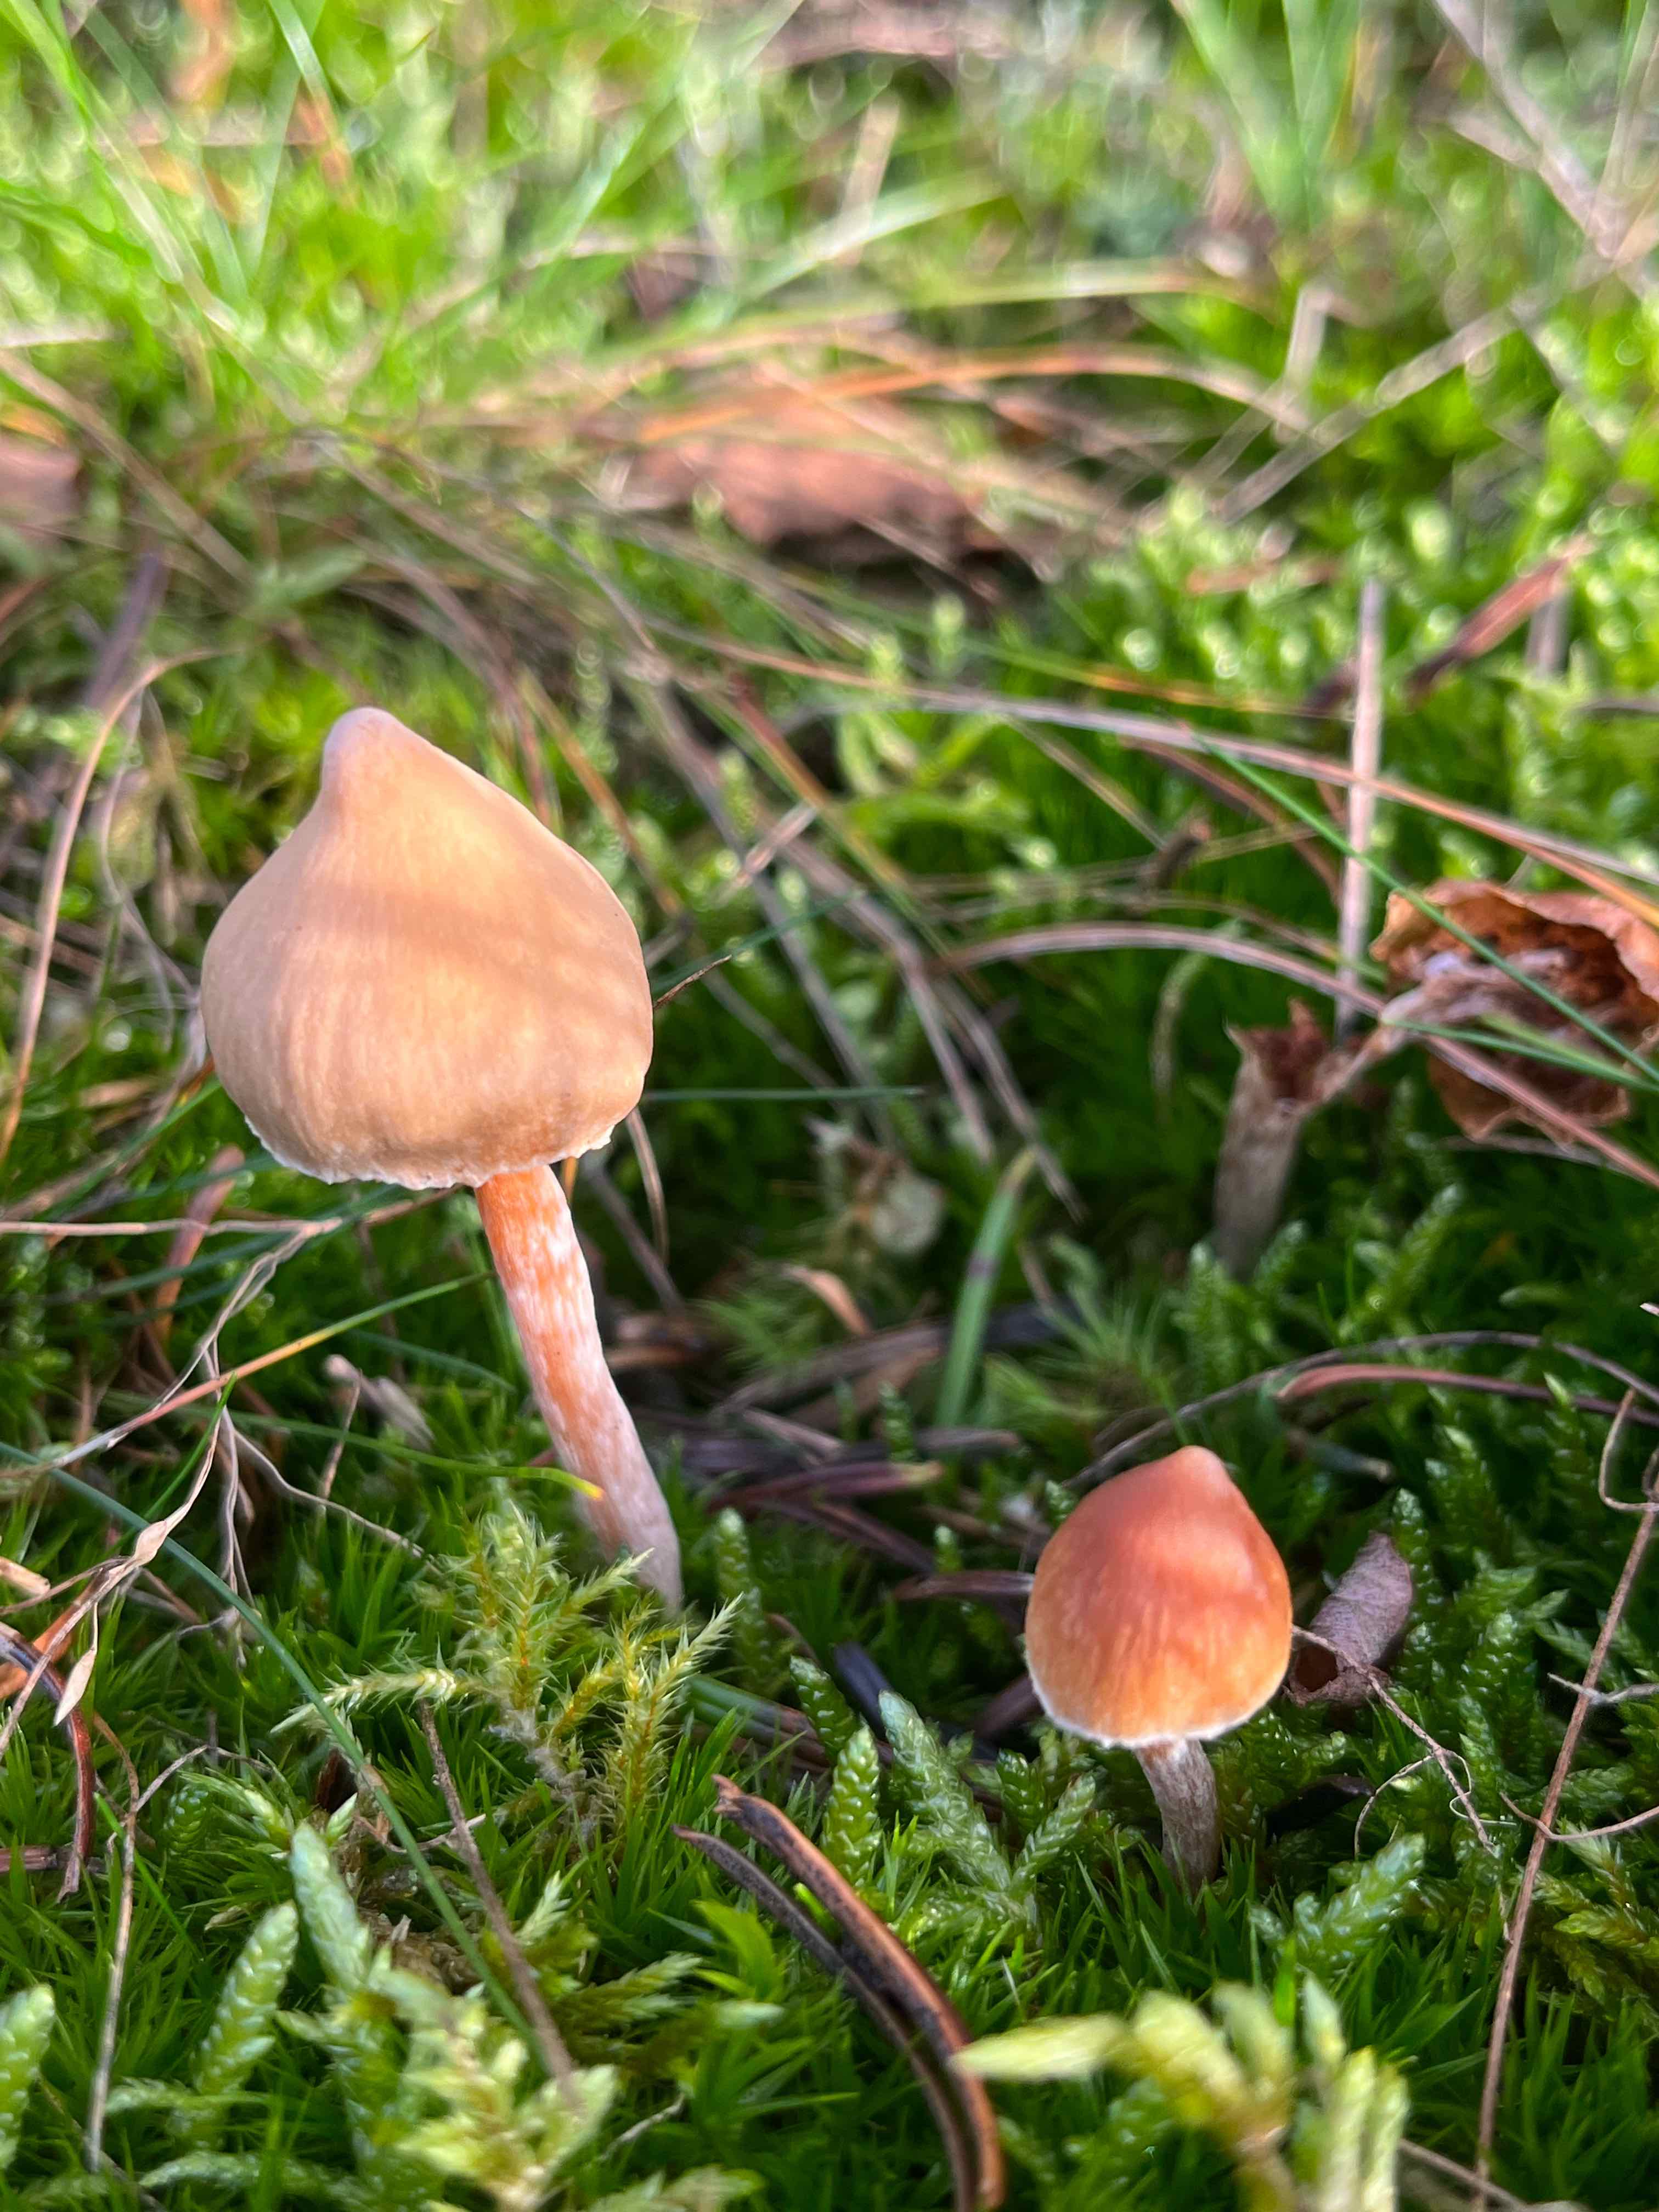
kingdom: Fungi
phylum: Basidiomycota
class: Agaricomycetes
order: Agaricales
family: Cortinariaceae
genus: Cortinarius
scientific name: Cortinarius
